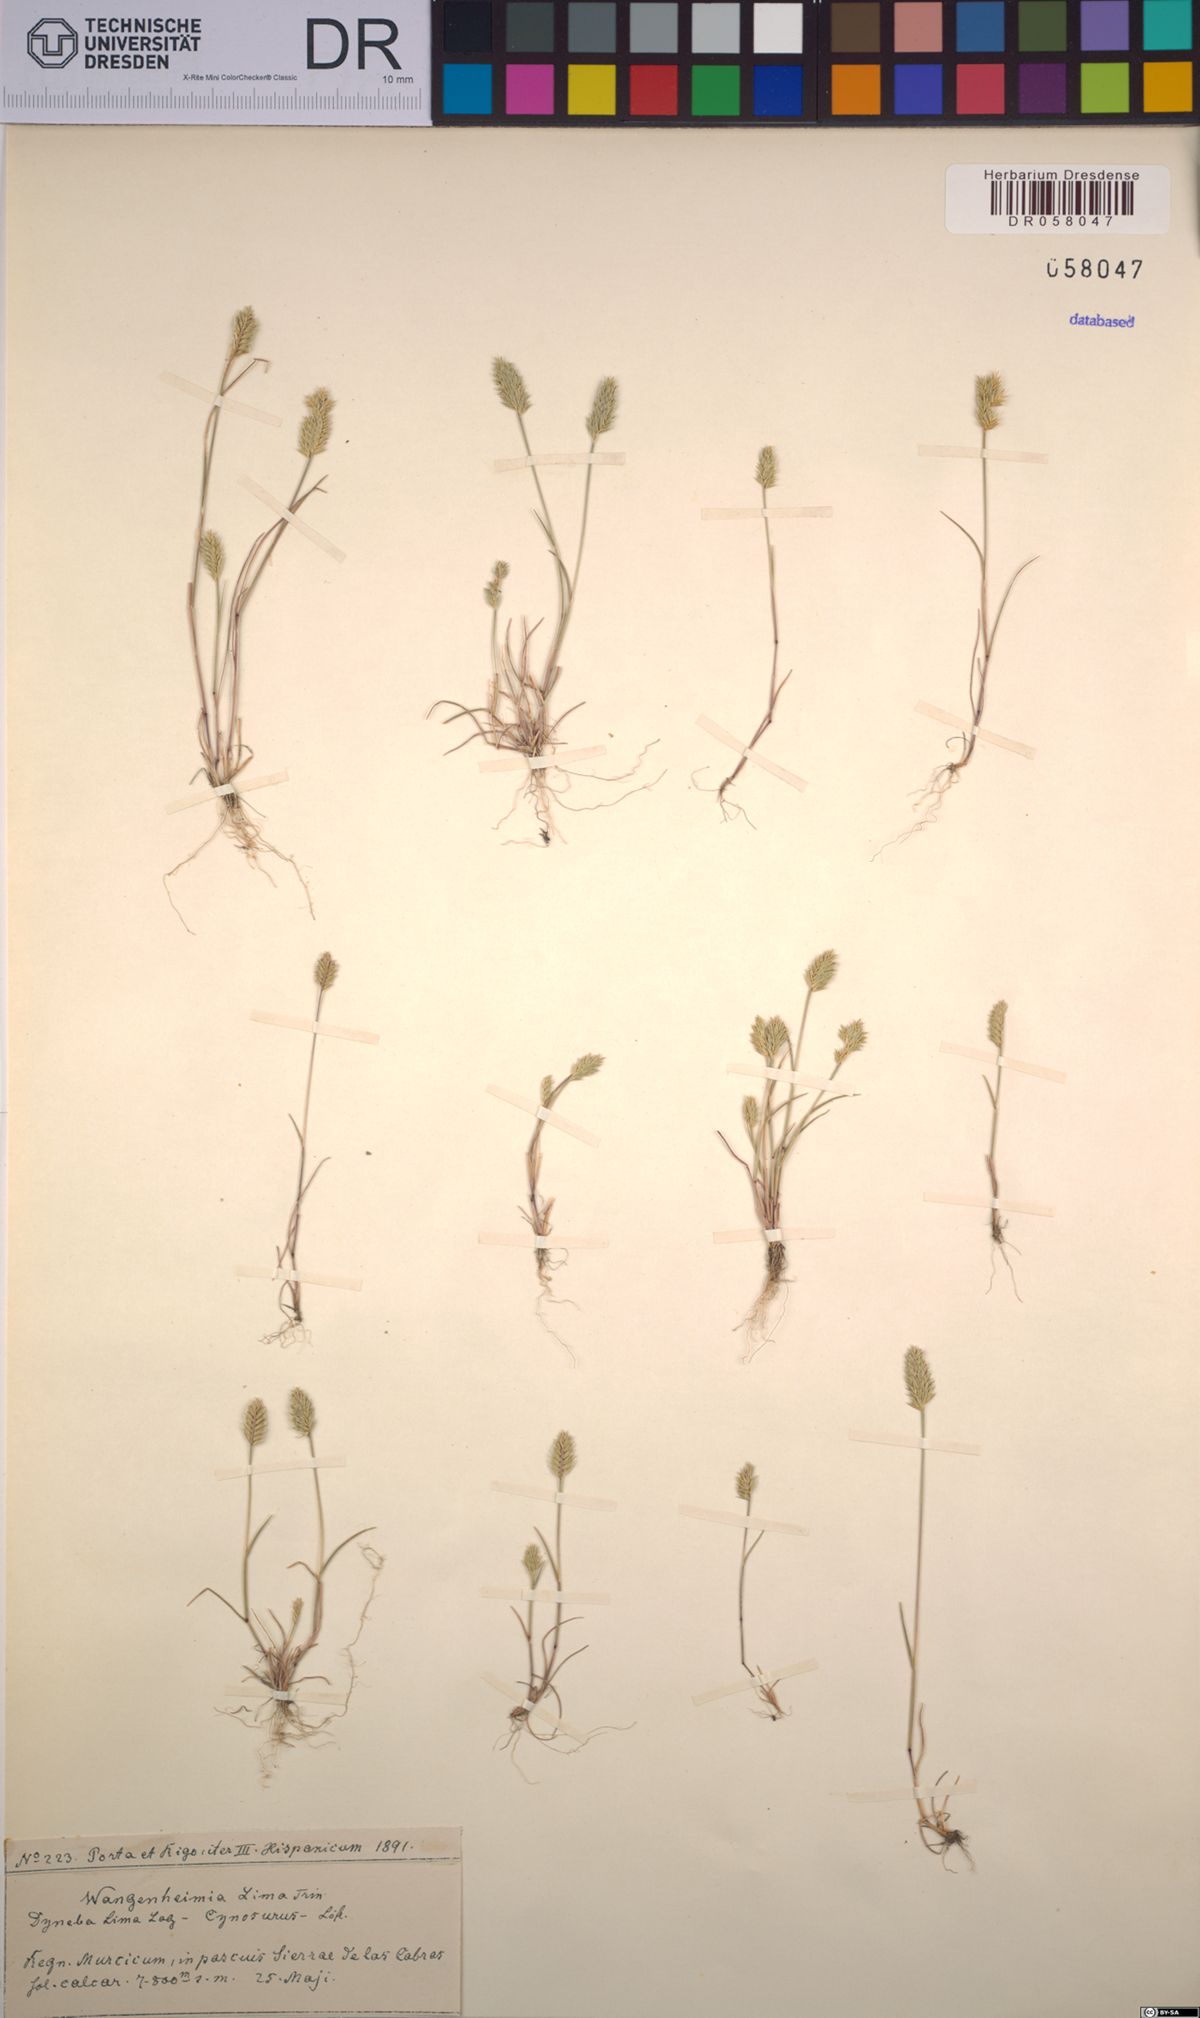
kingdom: Plantae
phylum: Tracheophyta
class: Liliopsida
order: Poales
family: Poaceae
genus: Wangenheimia
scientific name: Wangenheimia lima
